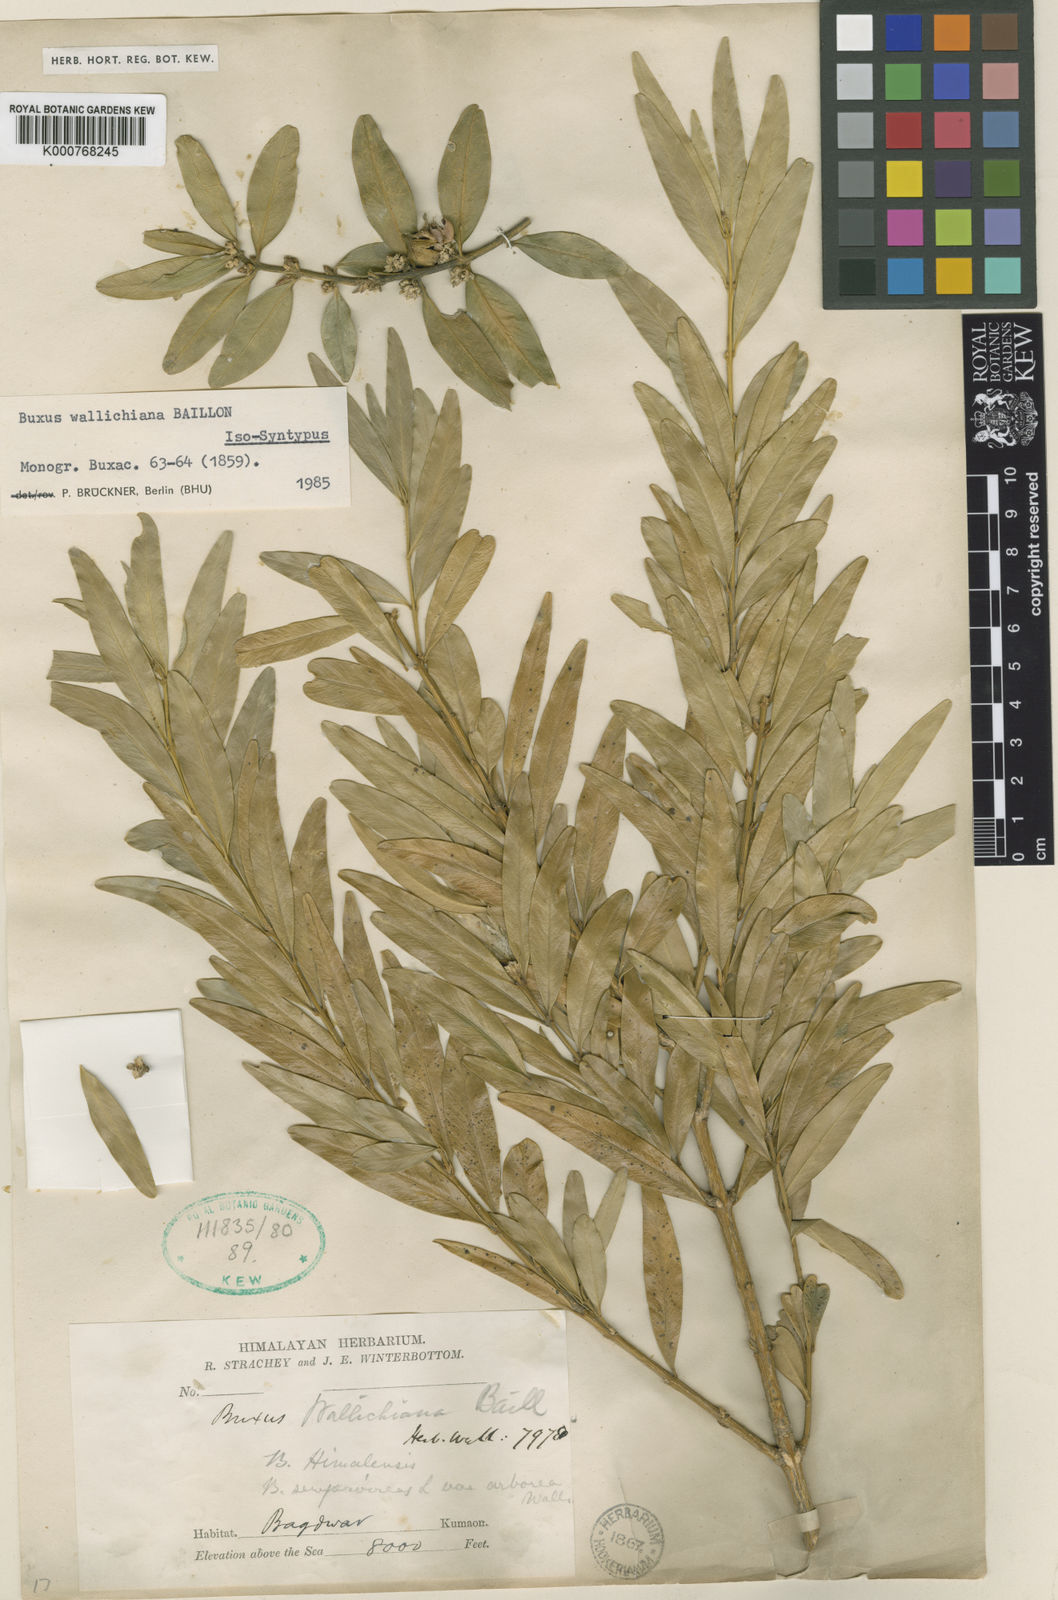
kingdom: Plantae
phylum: Tracheophyta
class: Magnoliopsida
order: Buxales
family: Buxaceae
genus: Buxus
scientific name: Buxus wallichiana
